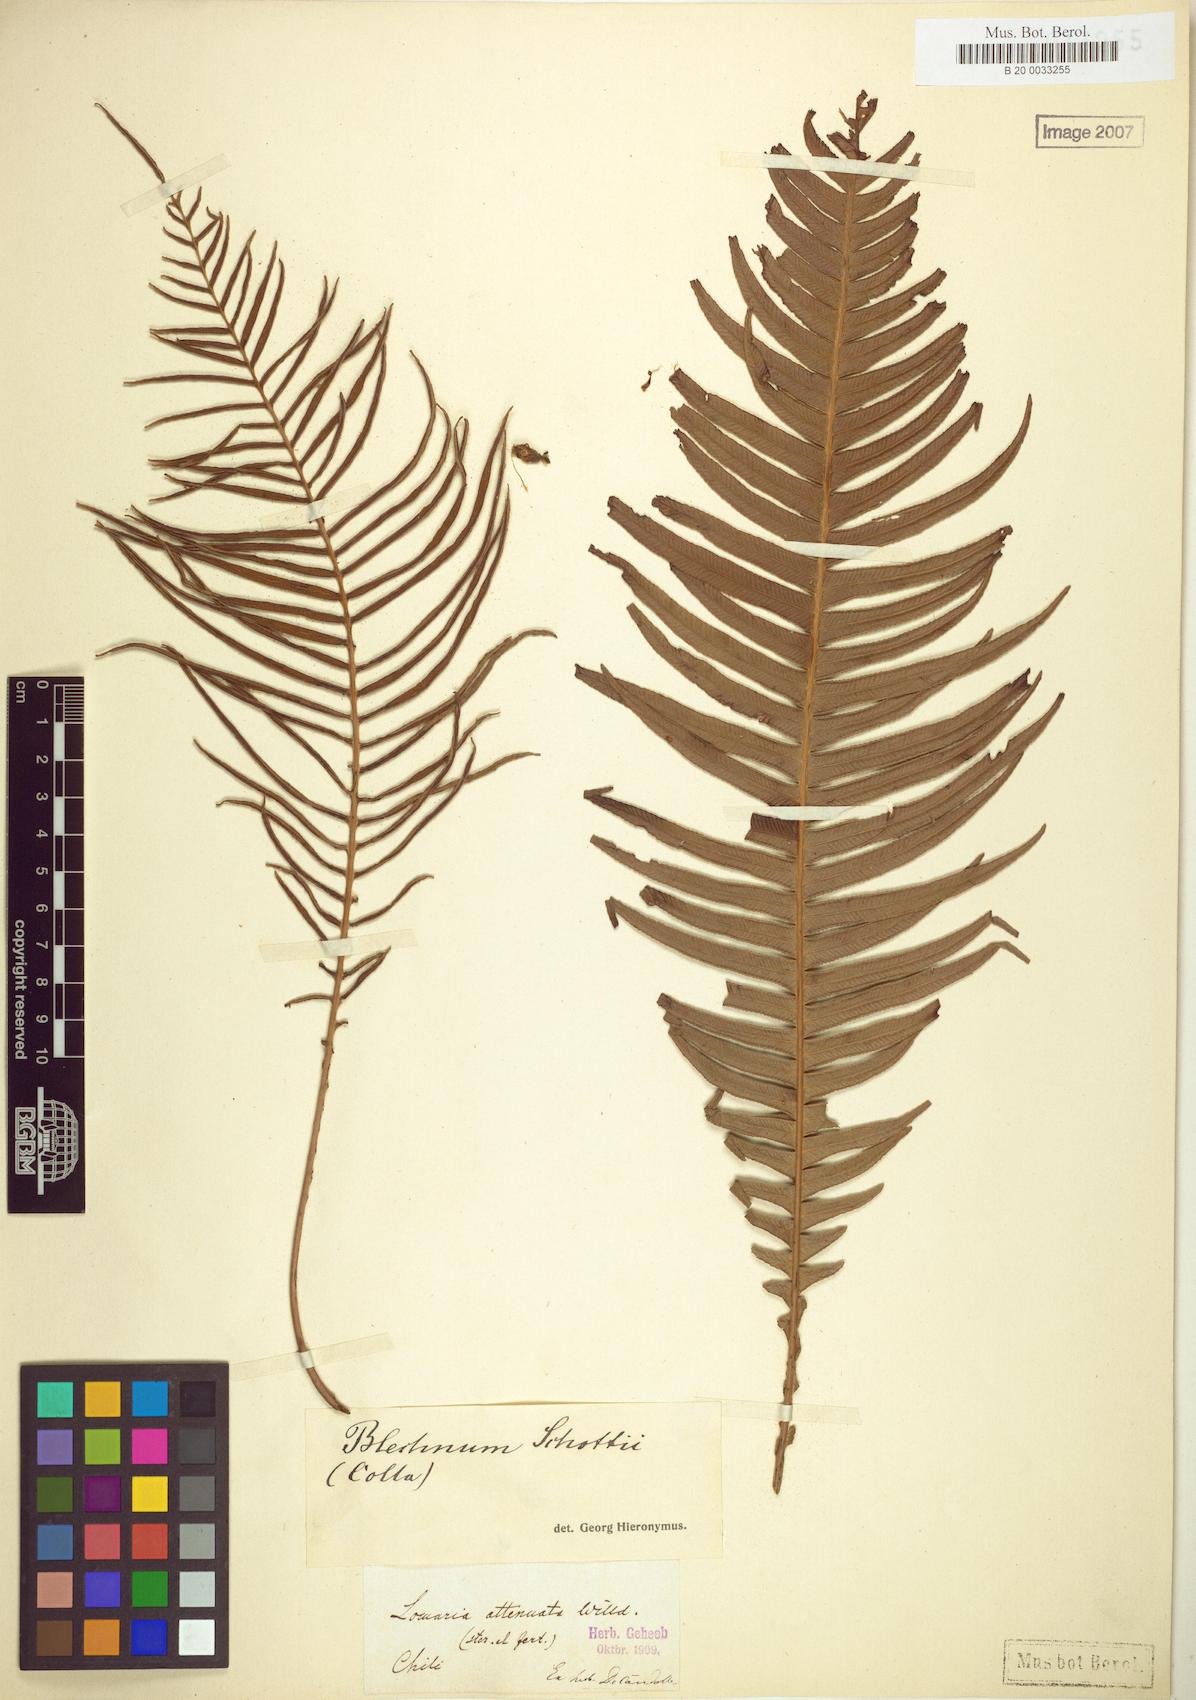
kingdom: Plantae
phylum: Tracheophyta
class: Polypodiopsida
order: Polypodiales
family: Blechnaceae
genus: Lomaridium
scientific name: Lomaridium schottii
